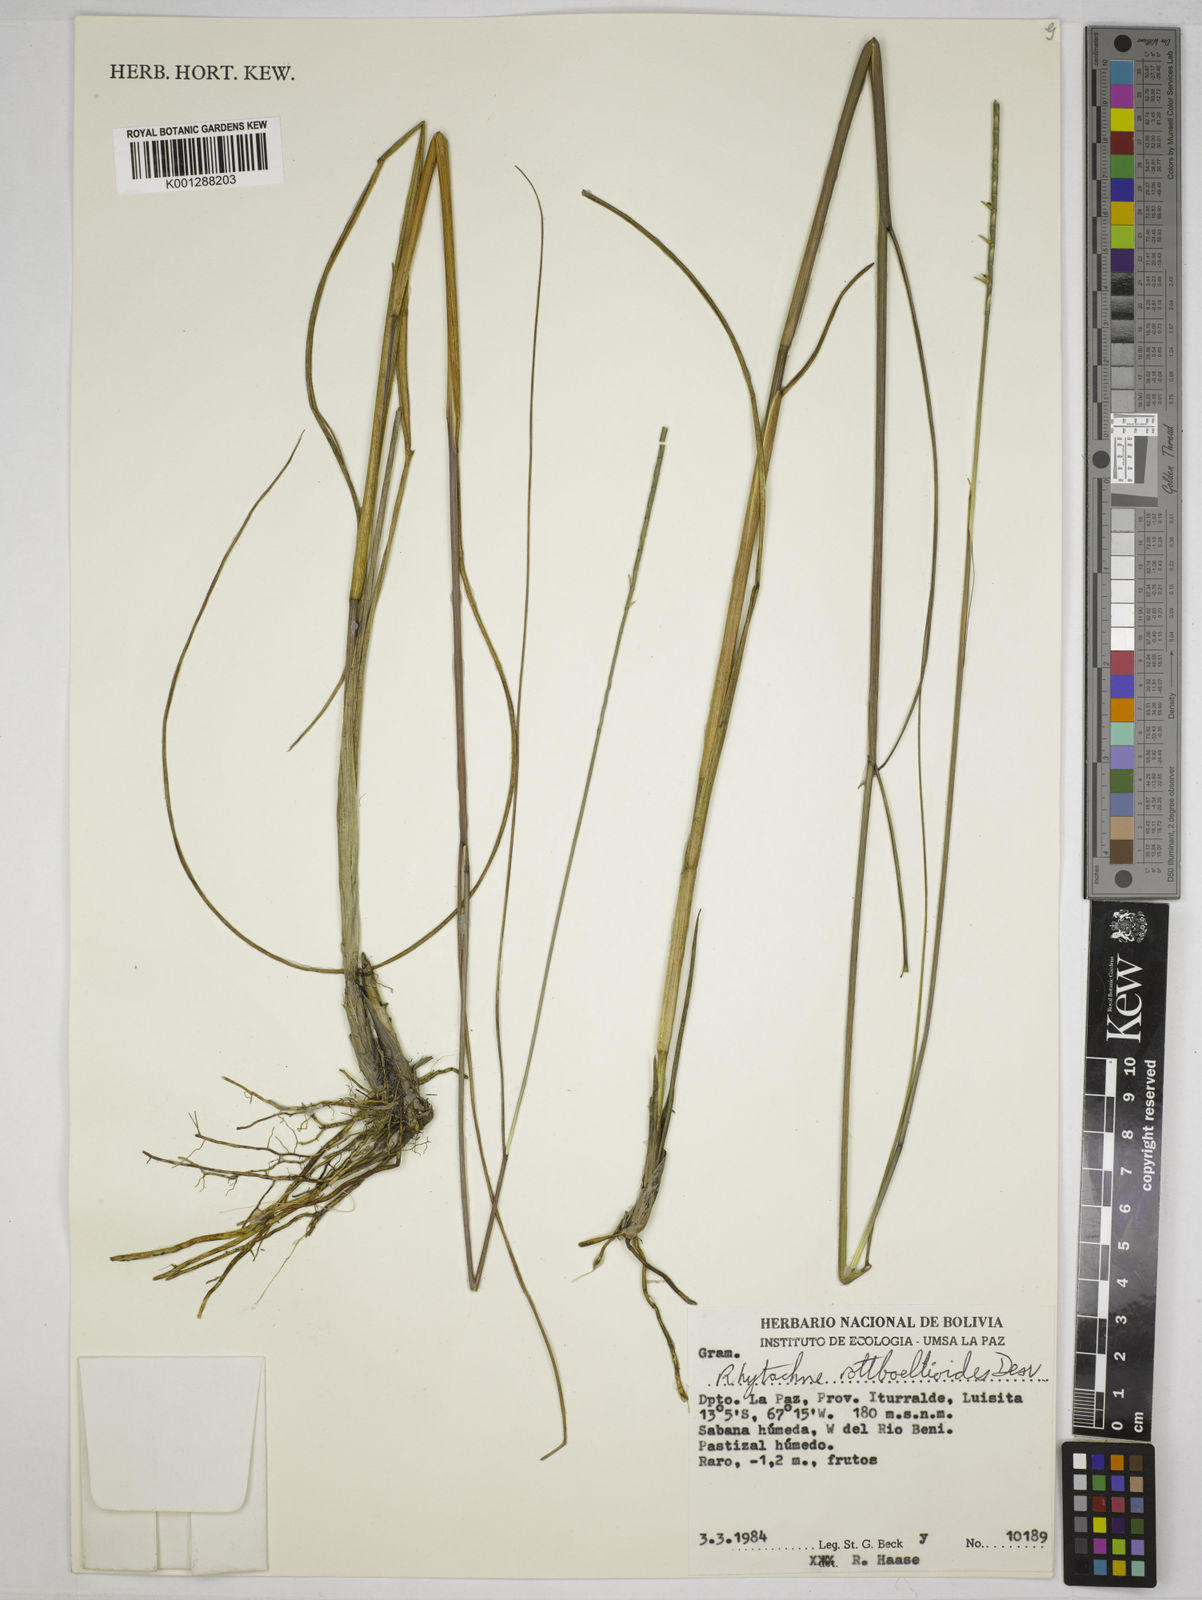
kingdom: Plantae
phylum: Tracheophyta
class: Liliopsida
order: Poales
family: Poaceae
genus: Rhytachne
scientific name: Rhytachne rottboellioides
